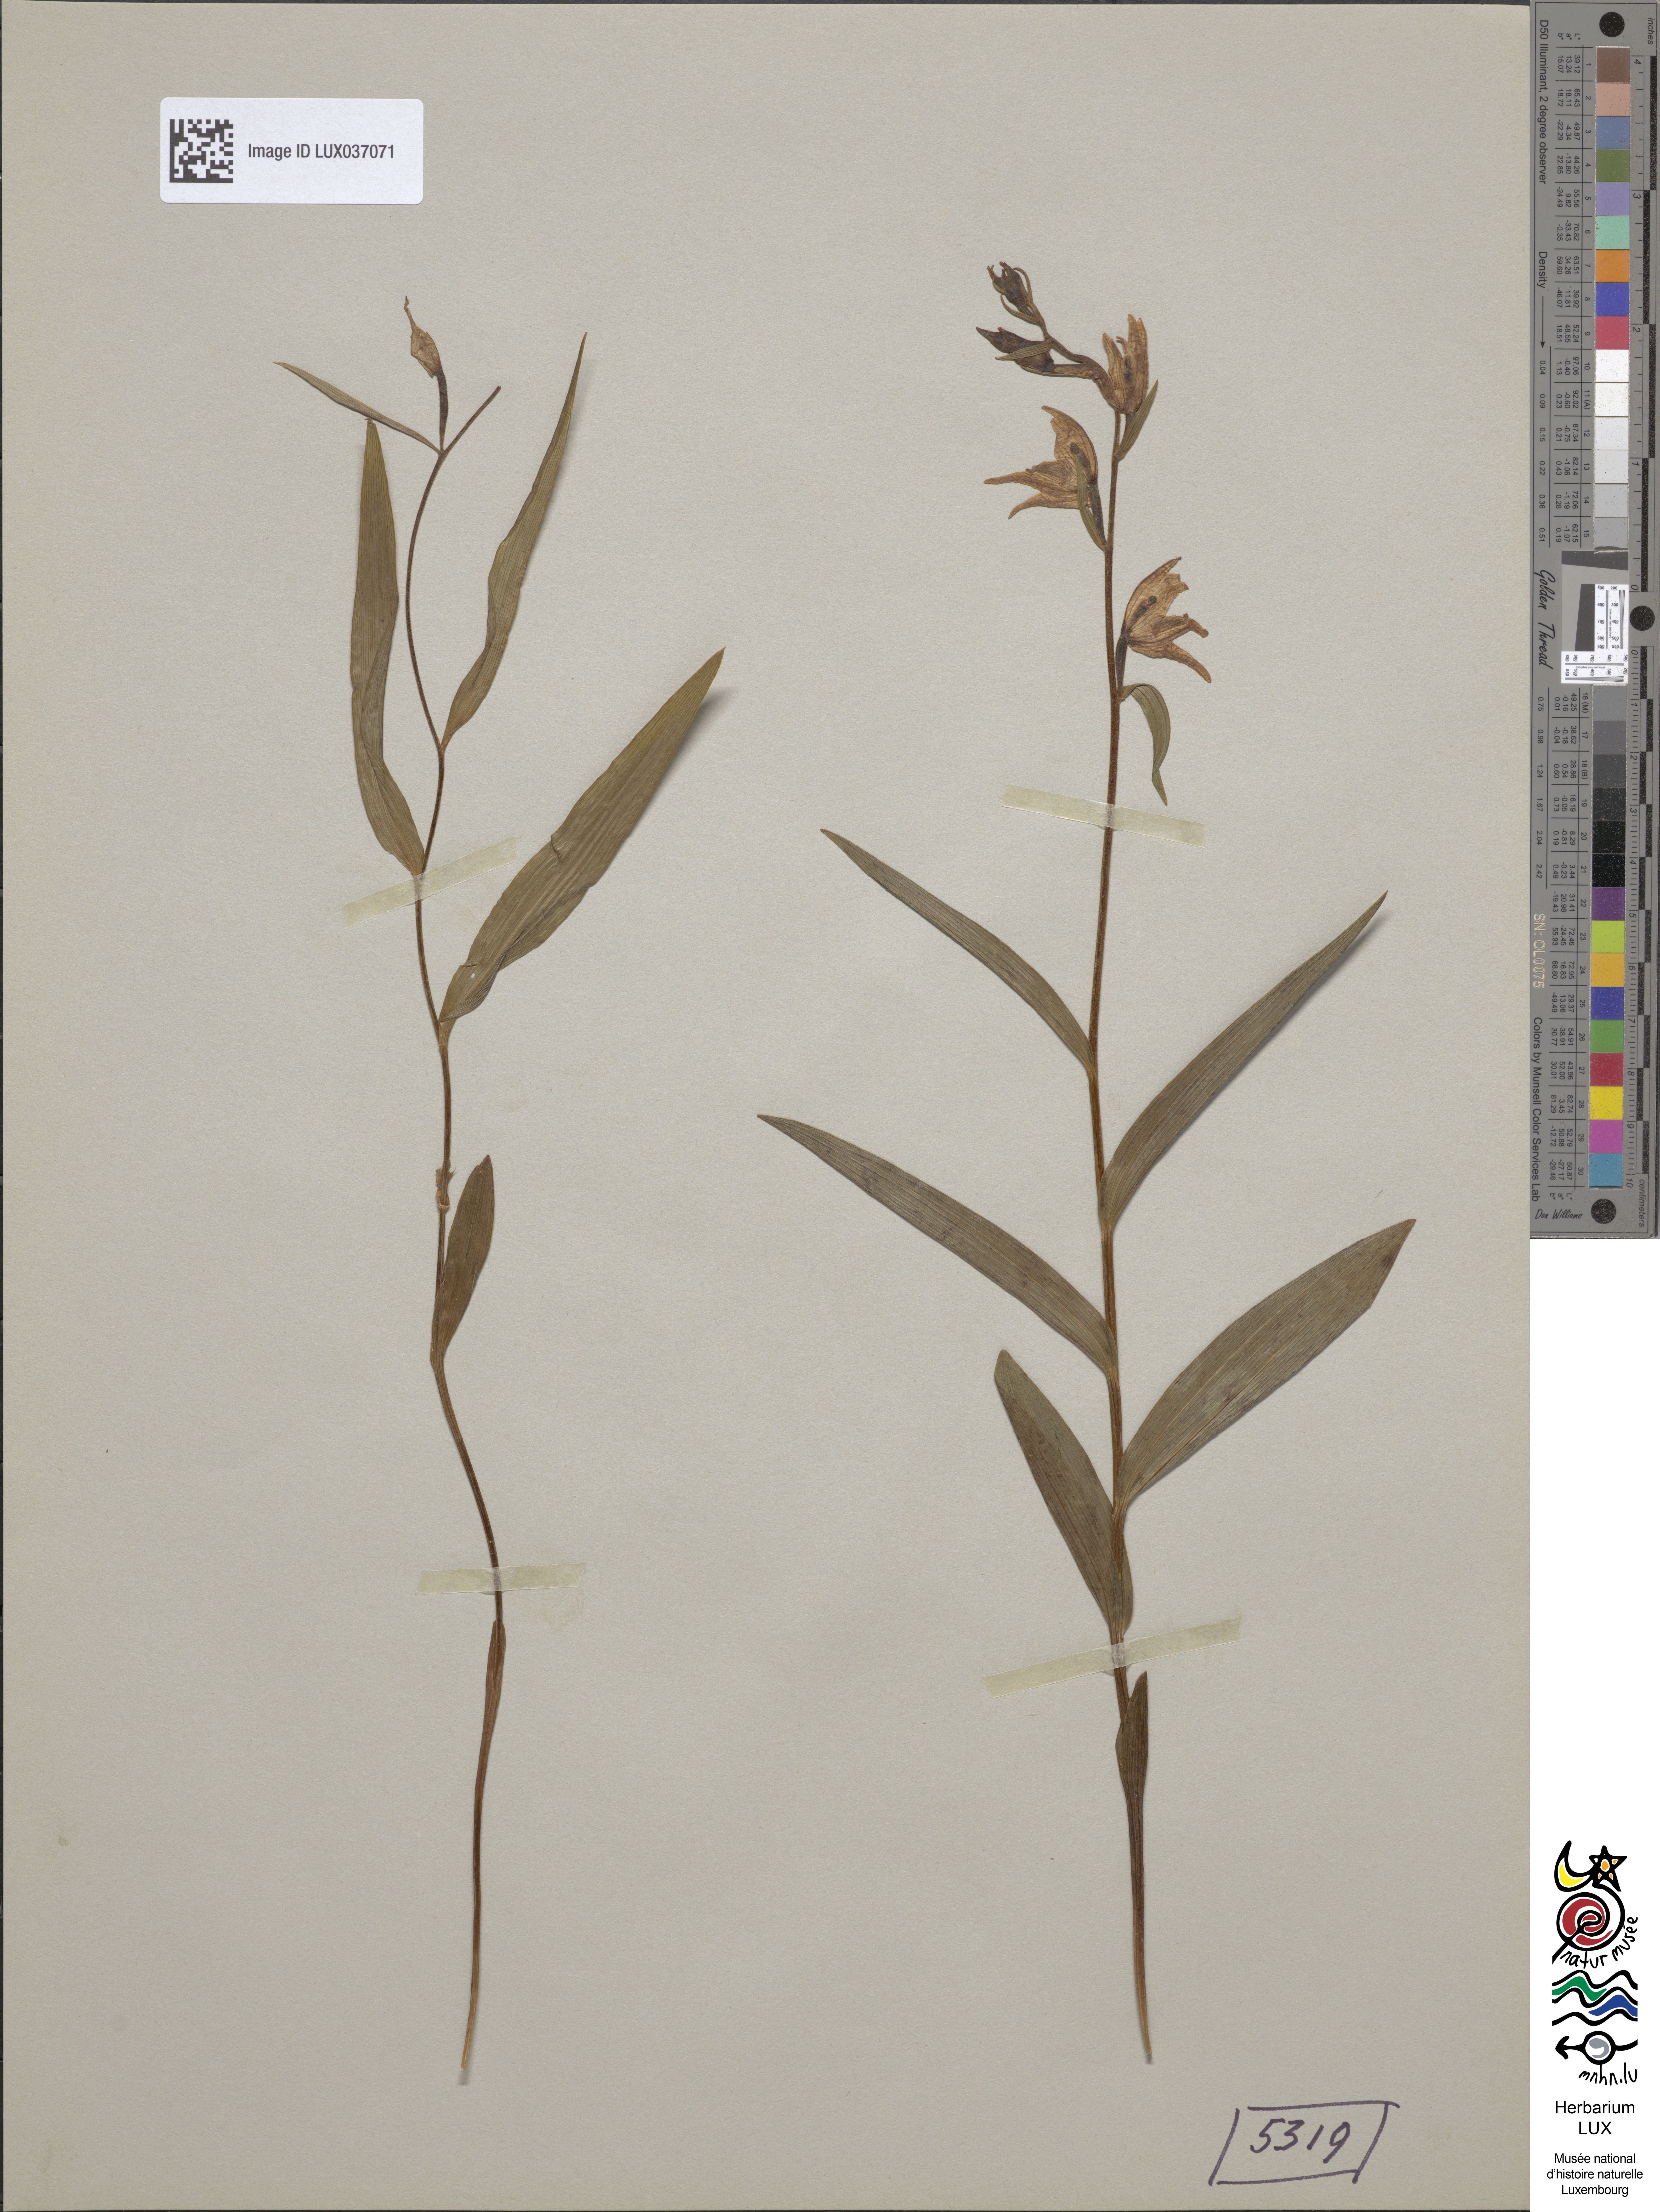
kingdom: Plantae
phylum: Tracheophyta
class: Liliopsida
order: Asparagales
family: Orchidaceae
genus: Cephalanthera
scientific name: Cephalanthera rubra
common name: Red helleborine
